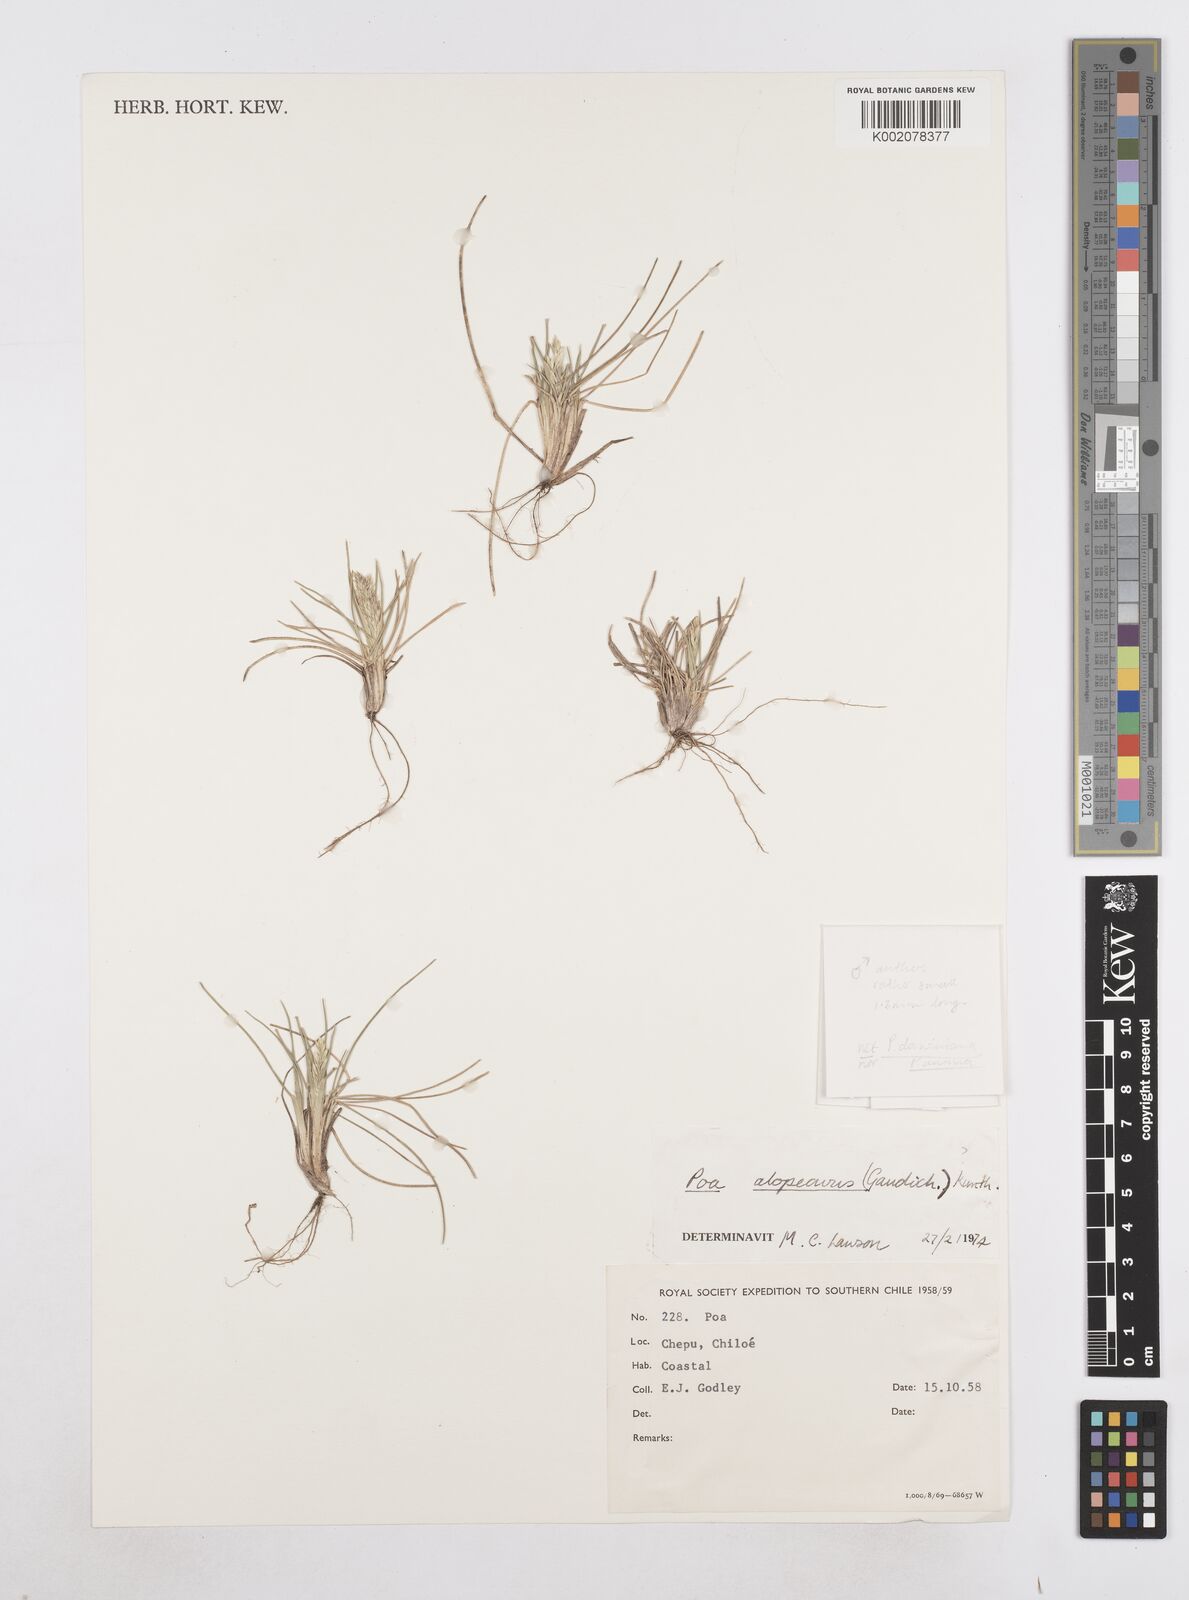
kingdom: Plantae
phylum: Tracheophyta
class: Liliopsida
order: Poales
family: Poaceae
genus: Poa
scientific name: Poa alopecurus
